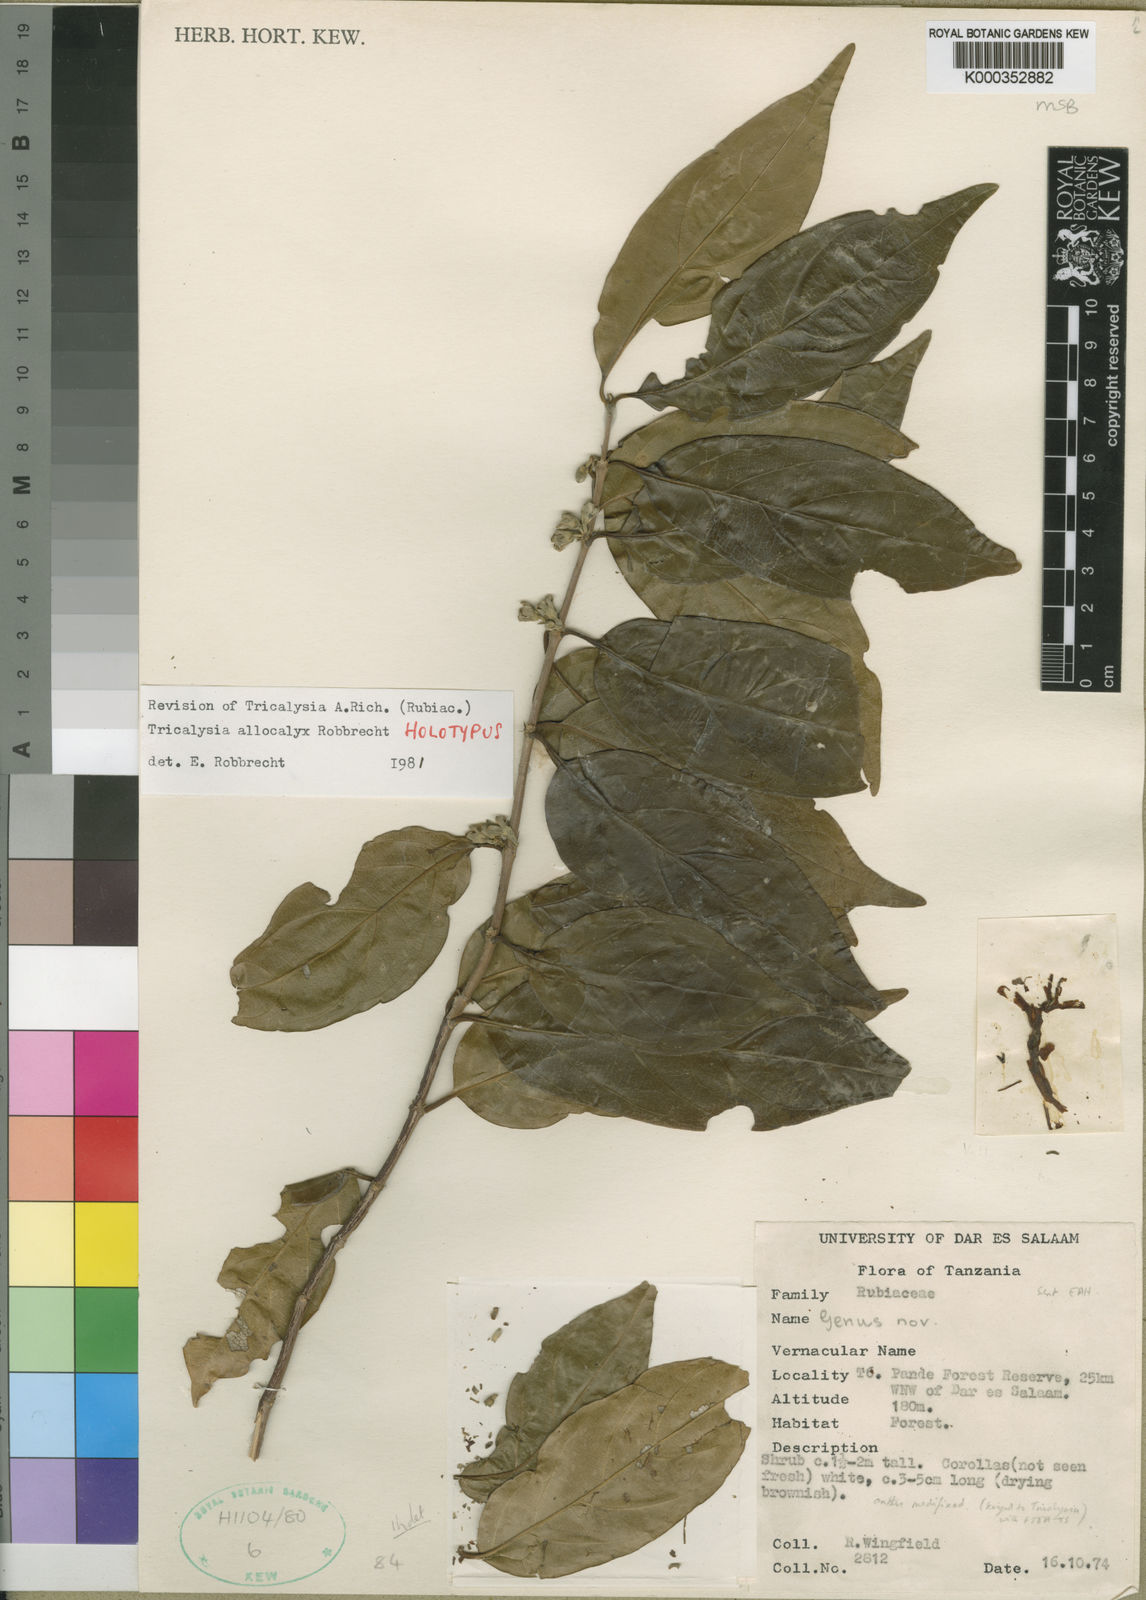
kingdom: Plantae
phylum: Tracheophyta
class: Magnoliopsida
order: Gentianales
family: Rubiaceae
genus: Tricalysia
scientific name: Tricalysia allocalyx
